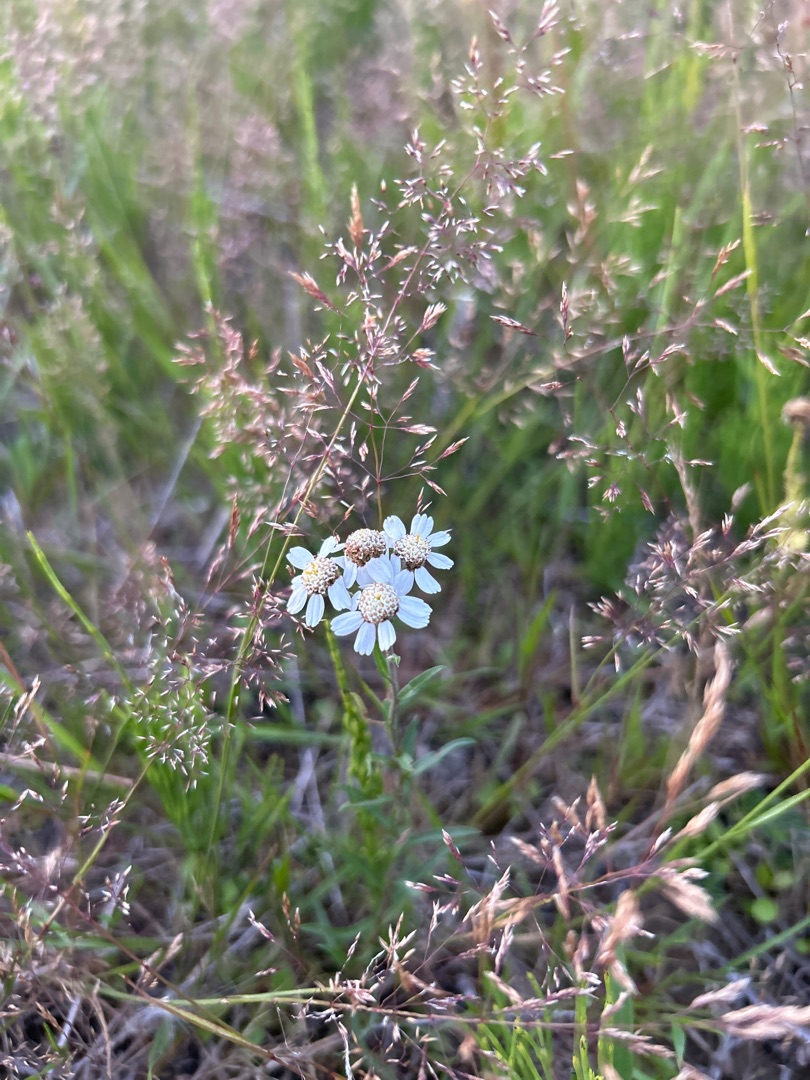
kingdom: Plantae
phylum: Tracheophyta
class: Magnoliopsida
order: Asterales
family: Asteraceae
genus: Achillea
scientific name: Achillea ptarmica
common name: Nyse-røllike
